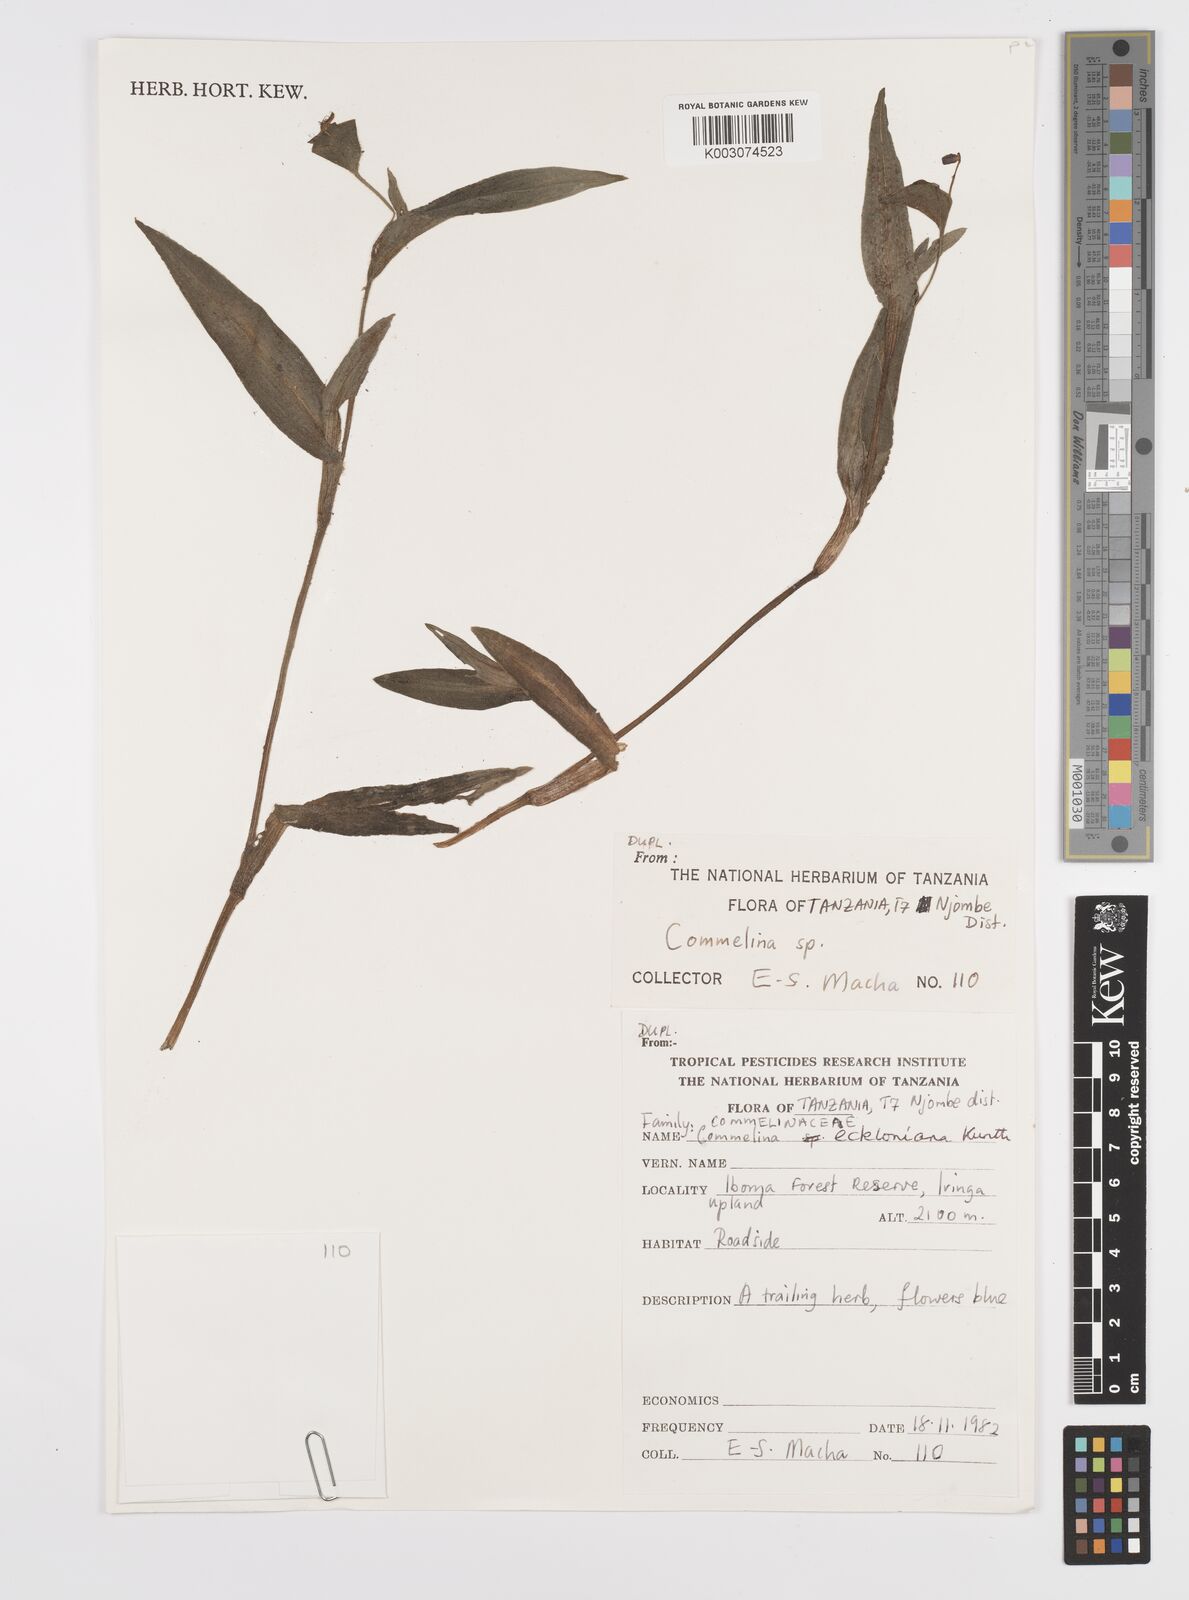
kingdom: Plantae
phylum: Tracheophyta
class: Liliopsida
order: Commelinales
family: Commelinaceae
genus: Commelina
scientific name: Commelina schliebenii
